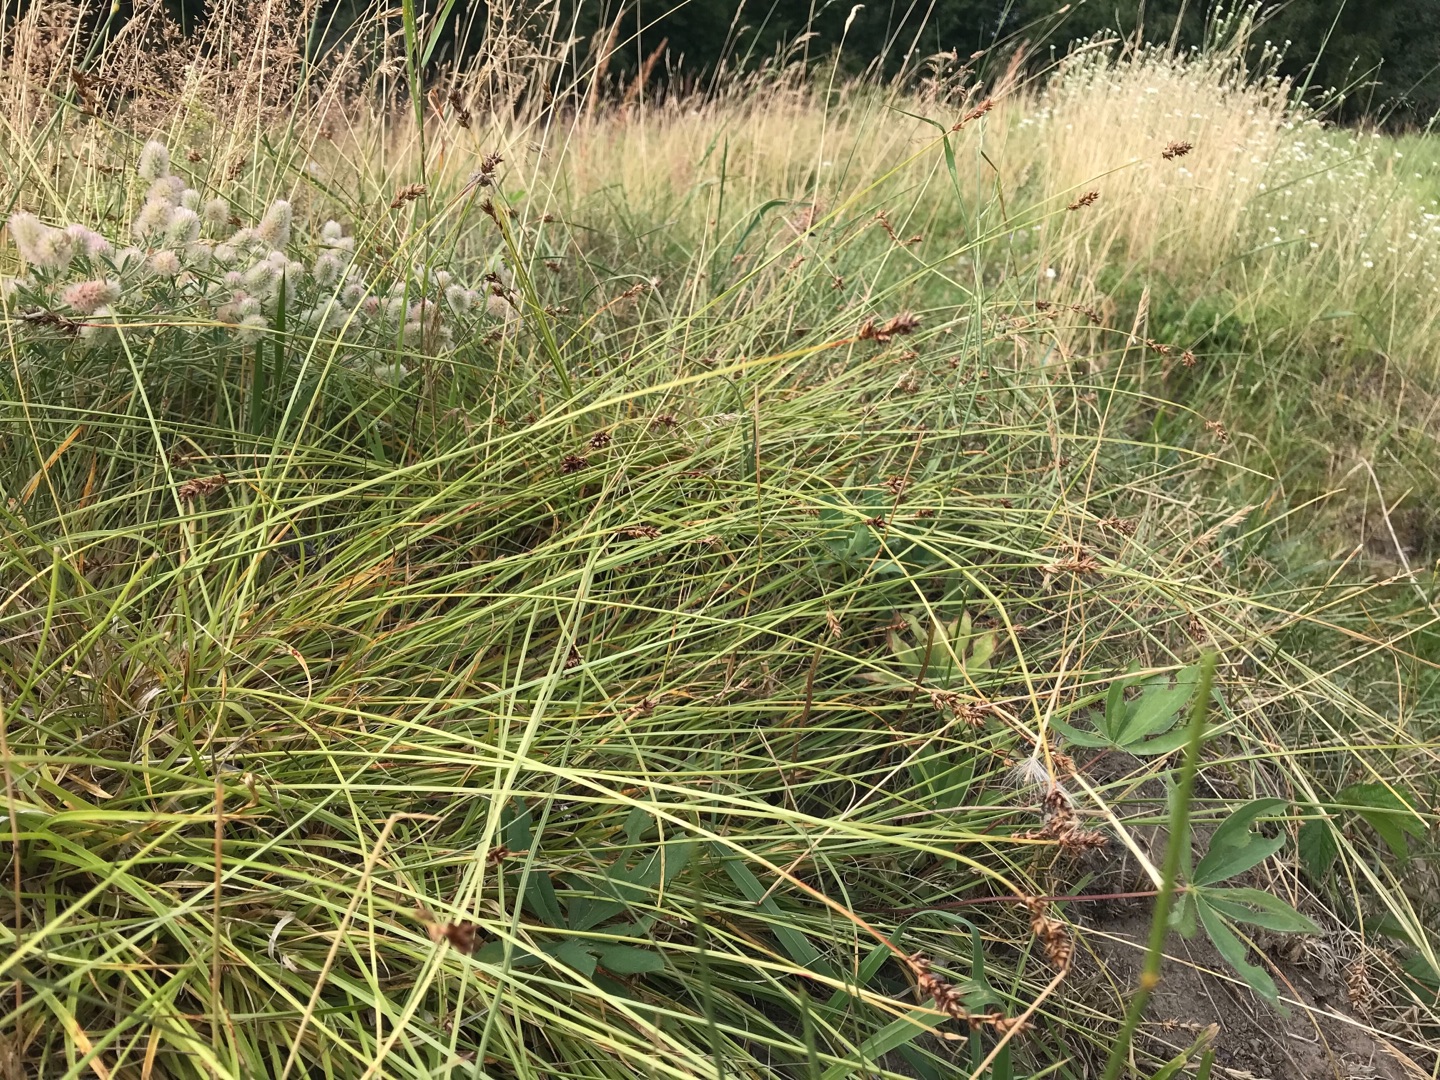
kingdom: Plantae
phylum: Tracheophyta
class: Liliopsida
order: Poales
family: Cyperaceae
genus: Carex
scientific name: Carex spicata
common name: Spidskapslet star
